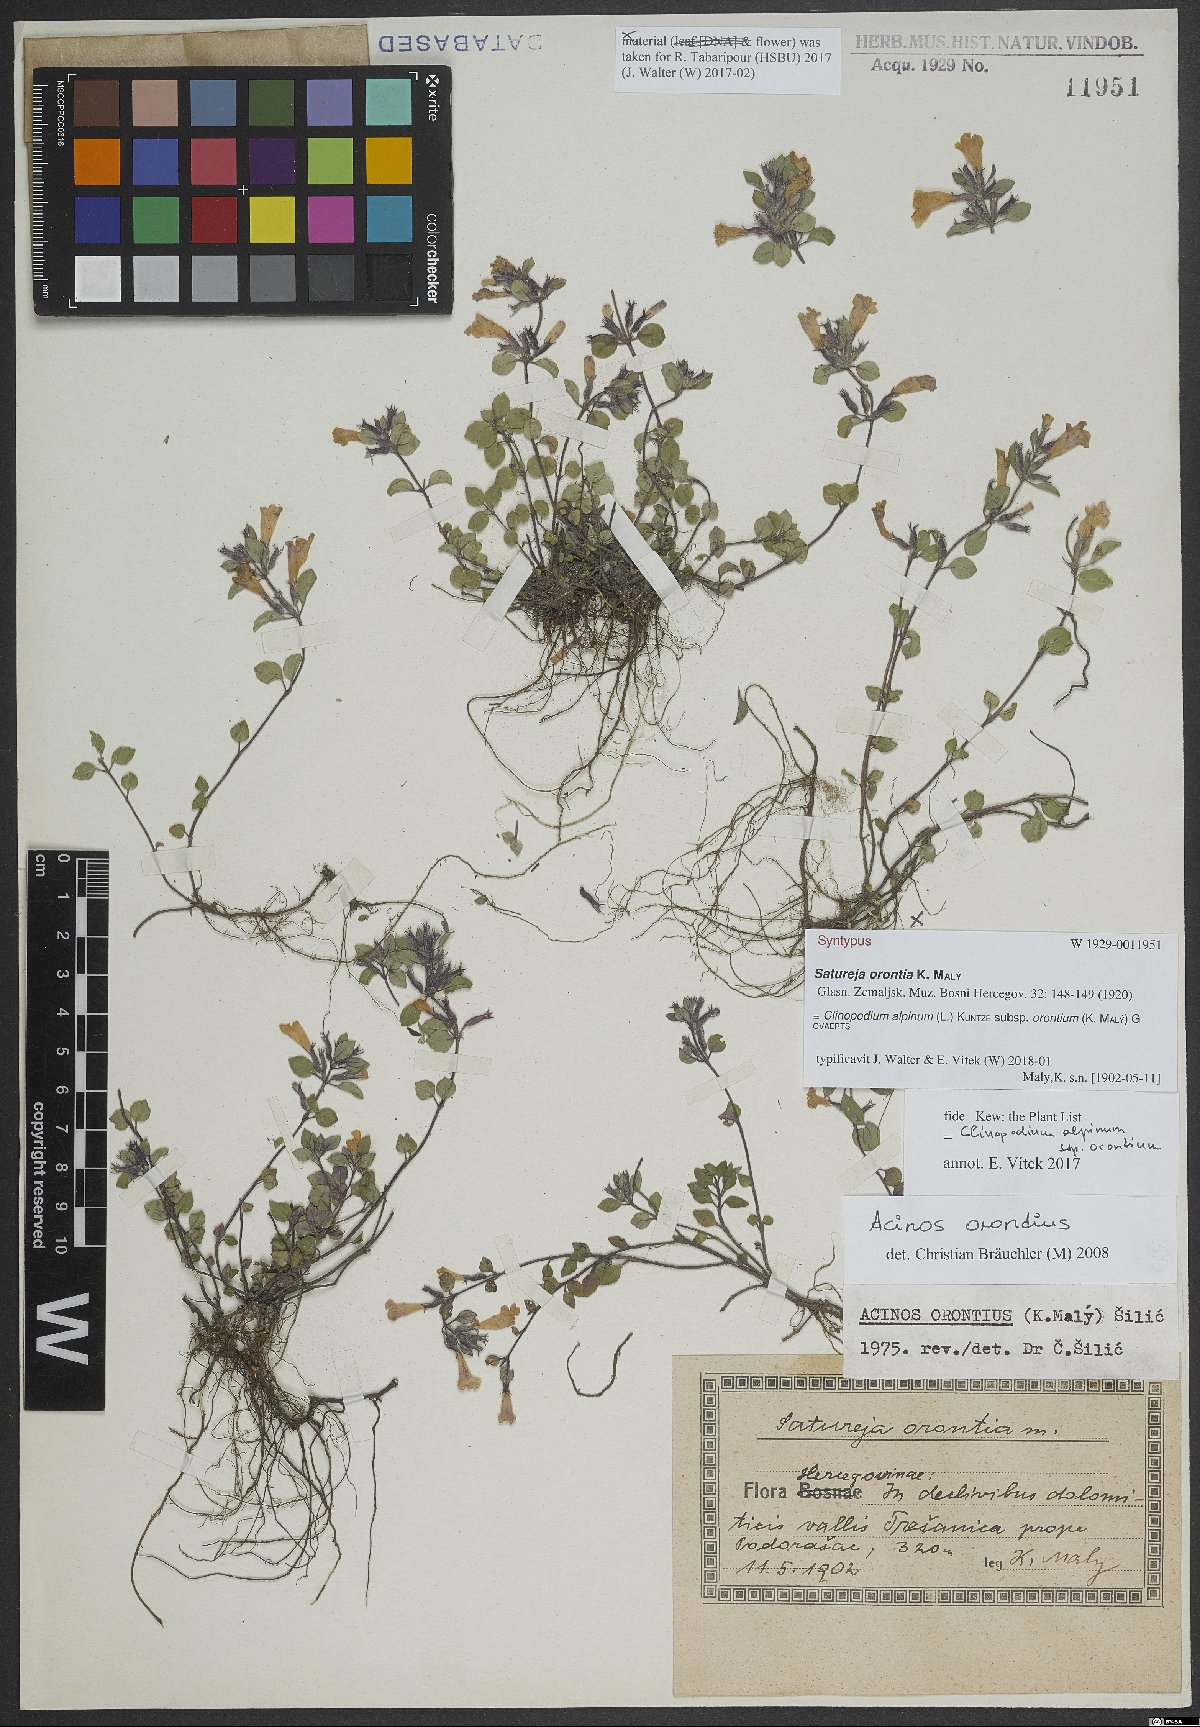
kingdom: Plantae
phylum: Tracheophyta
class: Magnoliopsida
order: Lamiales
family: Lamiaceae
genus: Clinopodium
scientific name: Clinopodium alpinum
